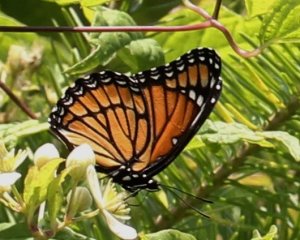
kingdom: Animalia
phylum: Arthropoda
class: Insecta
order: Lepidoptera
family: Nymphalidae
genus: Limenitis
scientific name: Limenitis archippus
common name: Viceroy
